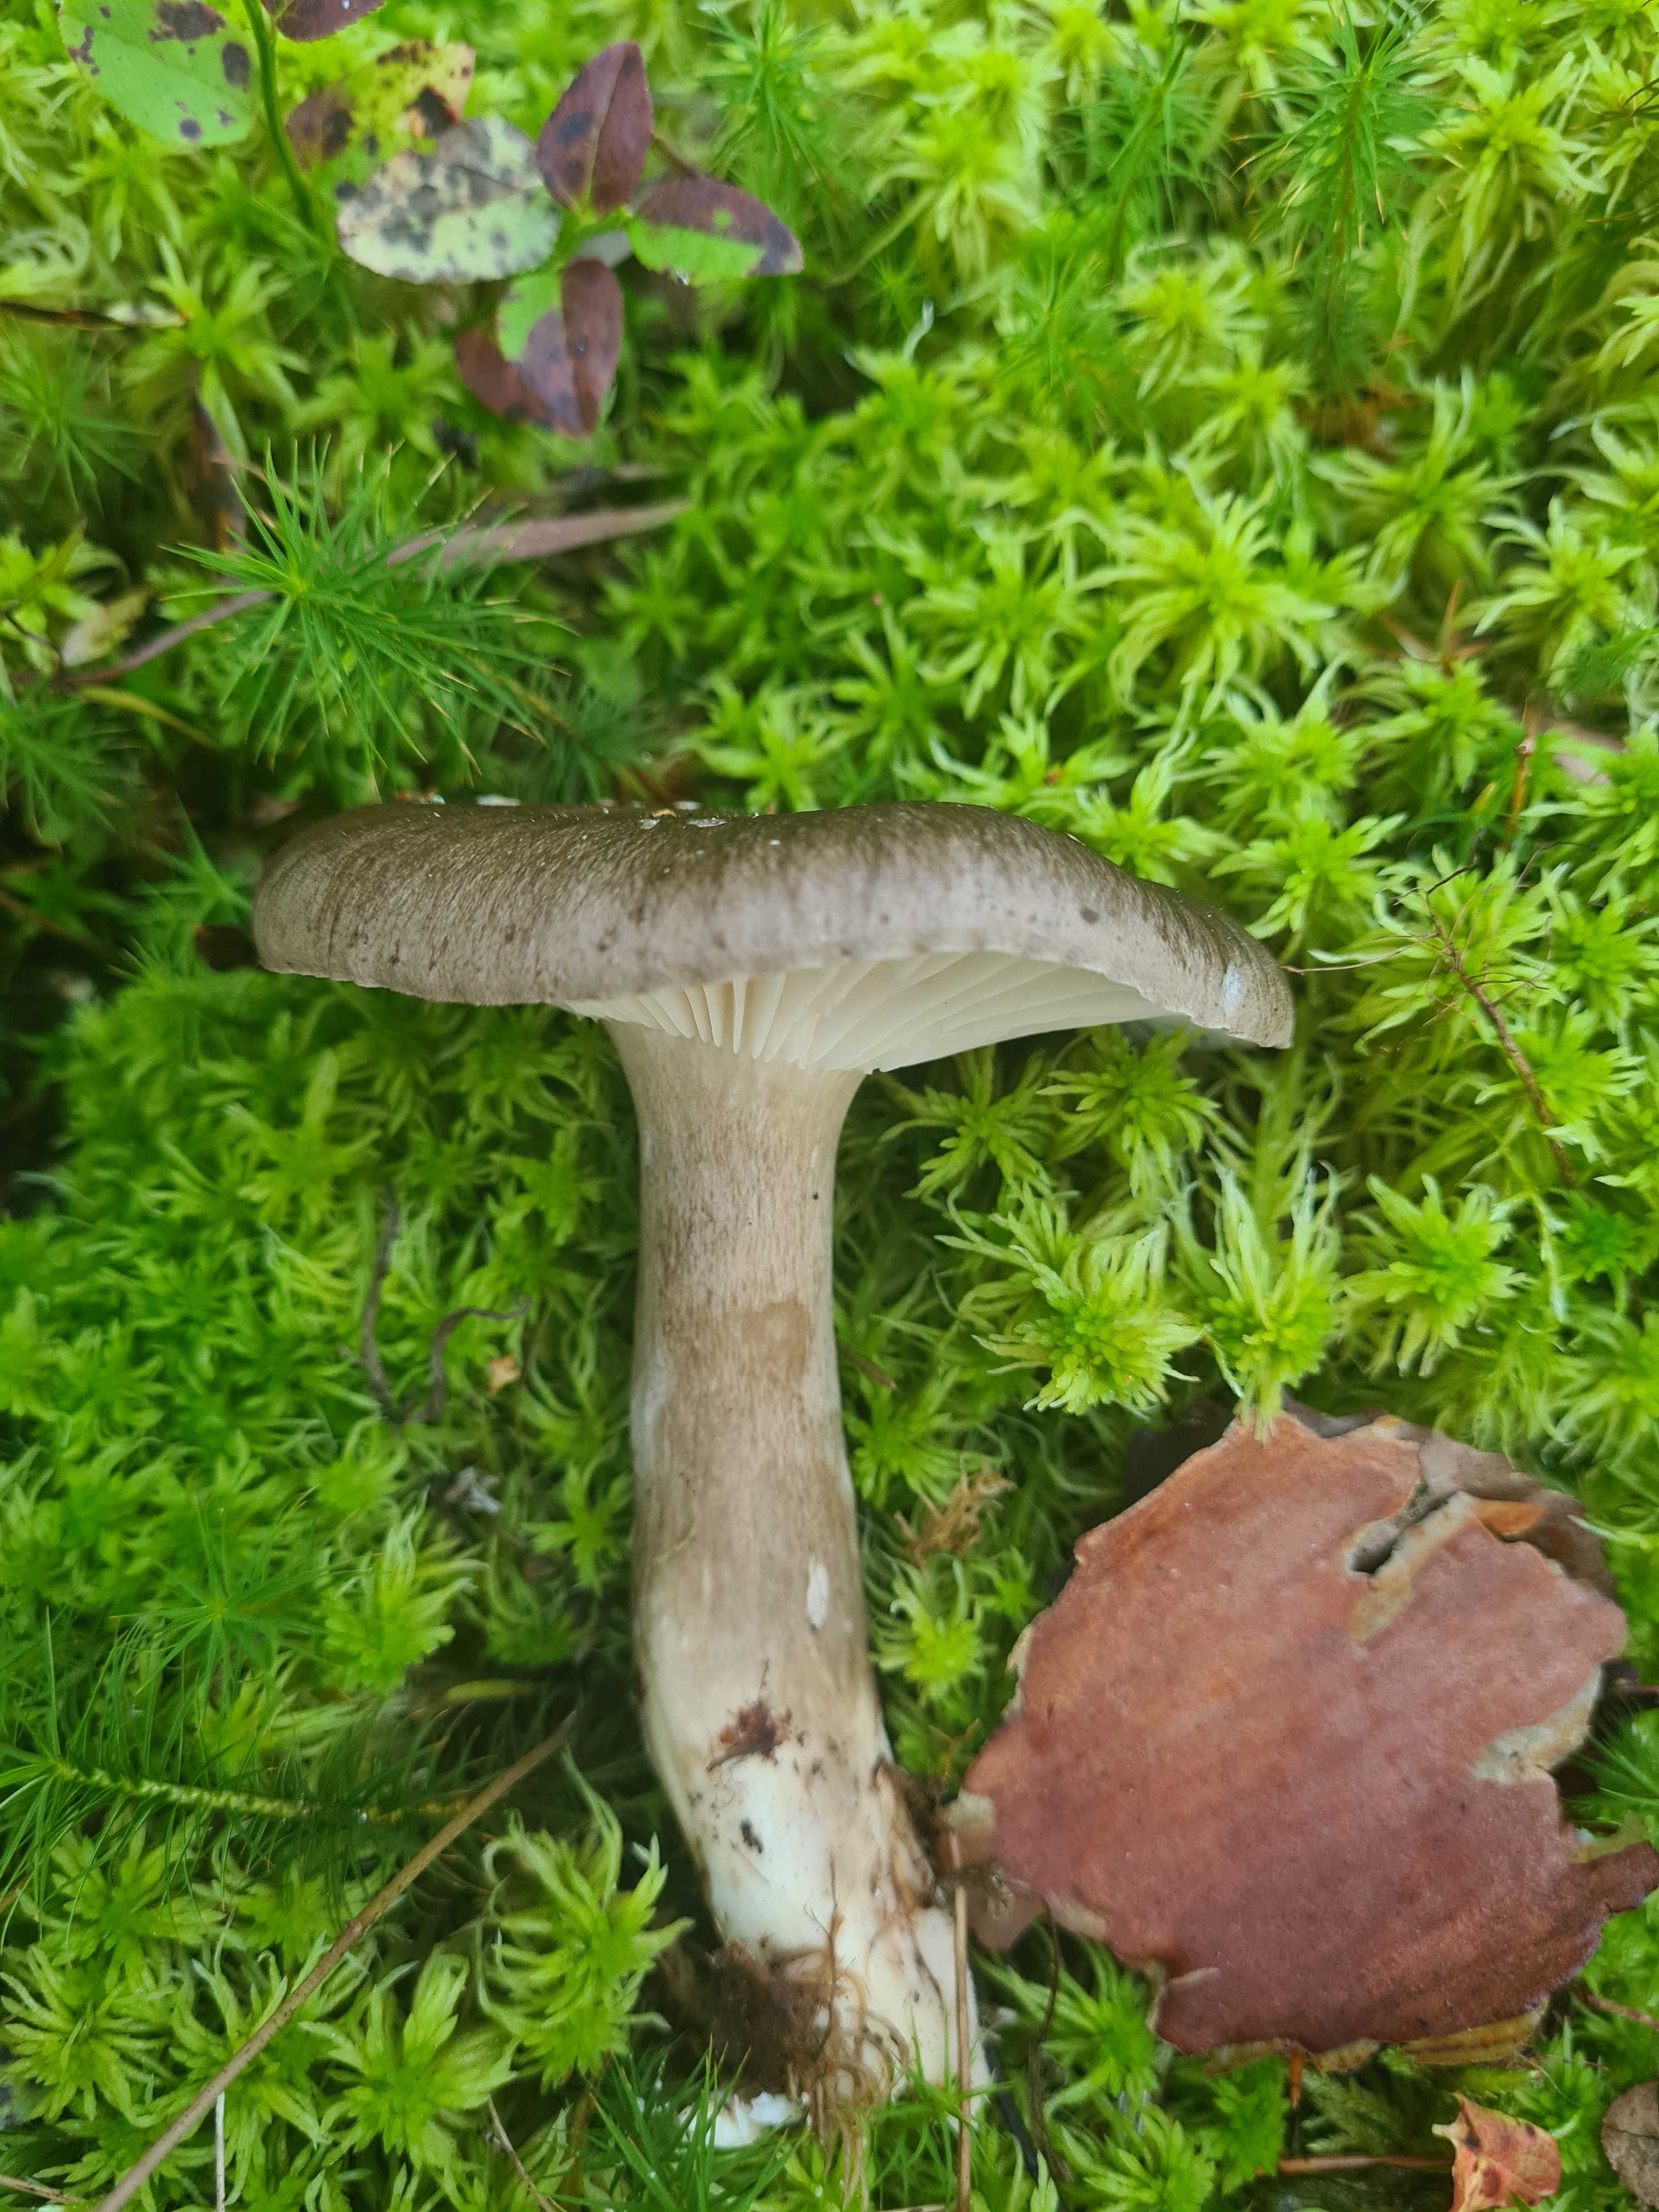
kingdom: Fungi
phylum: Basidiomycota
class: Agaricomycetes
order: Agaricales
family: Hygrophoraceae
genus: Hygrophorus
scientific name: Hygrophorus camarophyllus
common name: sodbrun sneglehat
